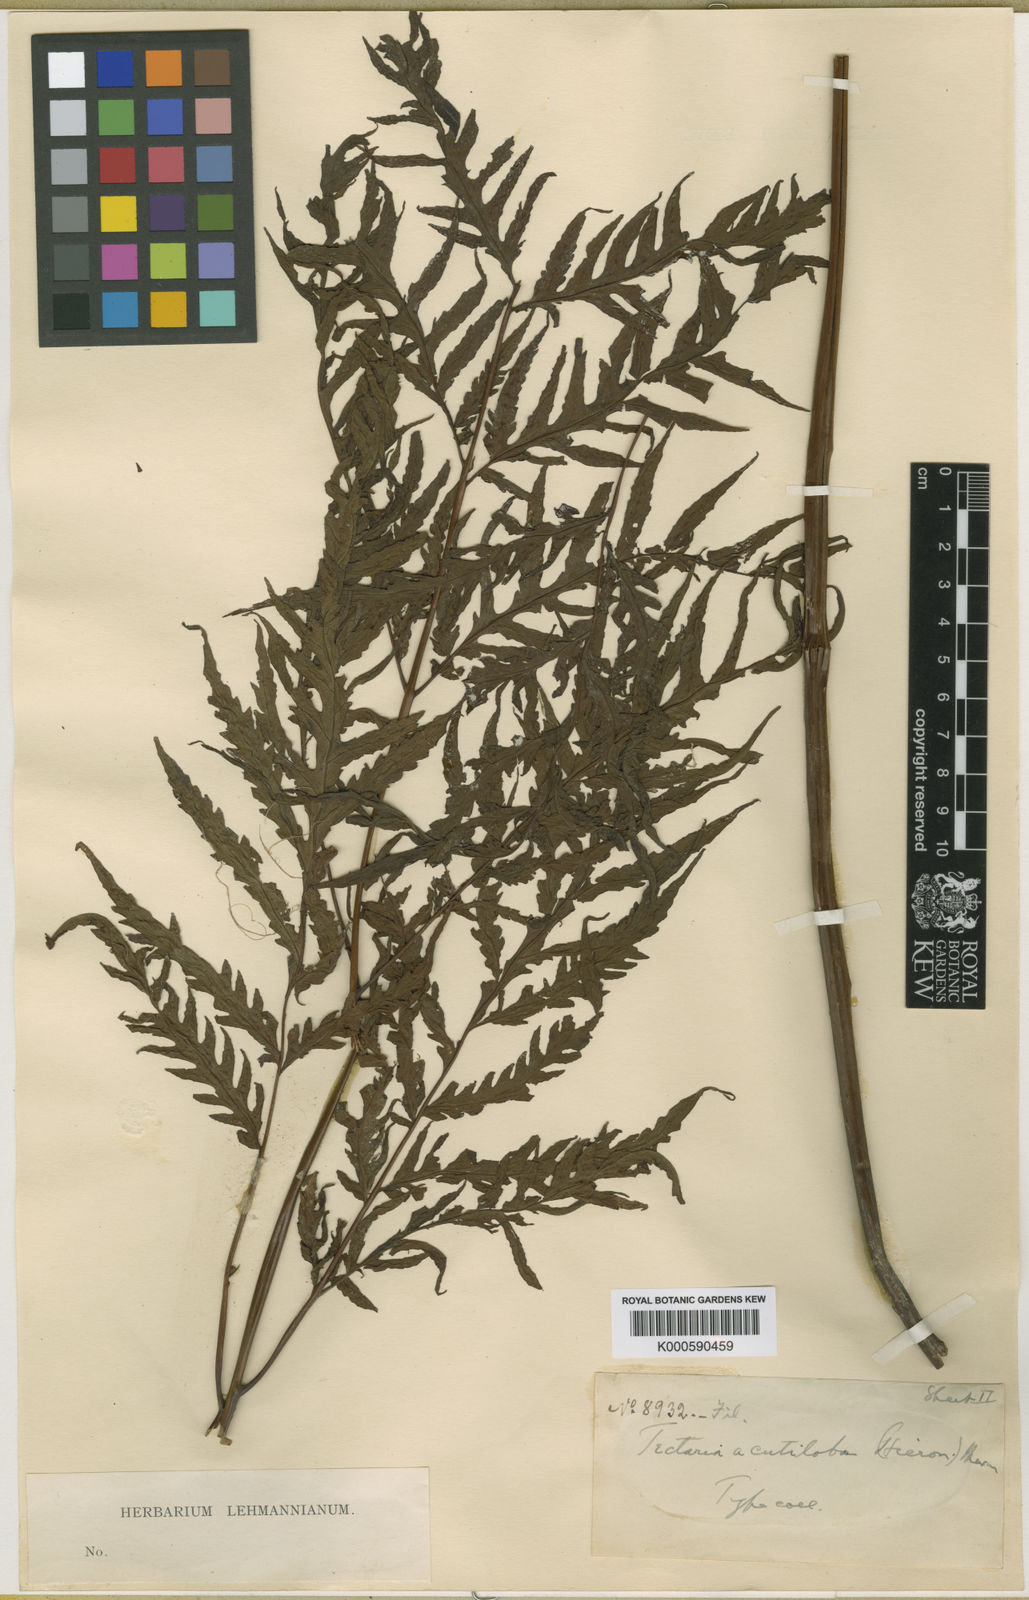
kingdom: Plantae
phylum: Tracheophyta
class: Polypodiopsida
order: Polypodiales
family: Tectariaceae
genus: Tectaria
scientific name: Tectaria mexicana
